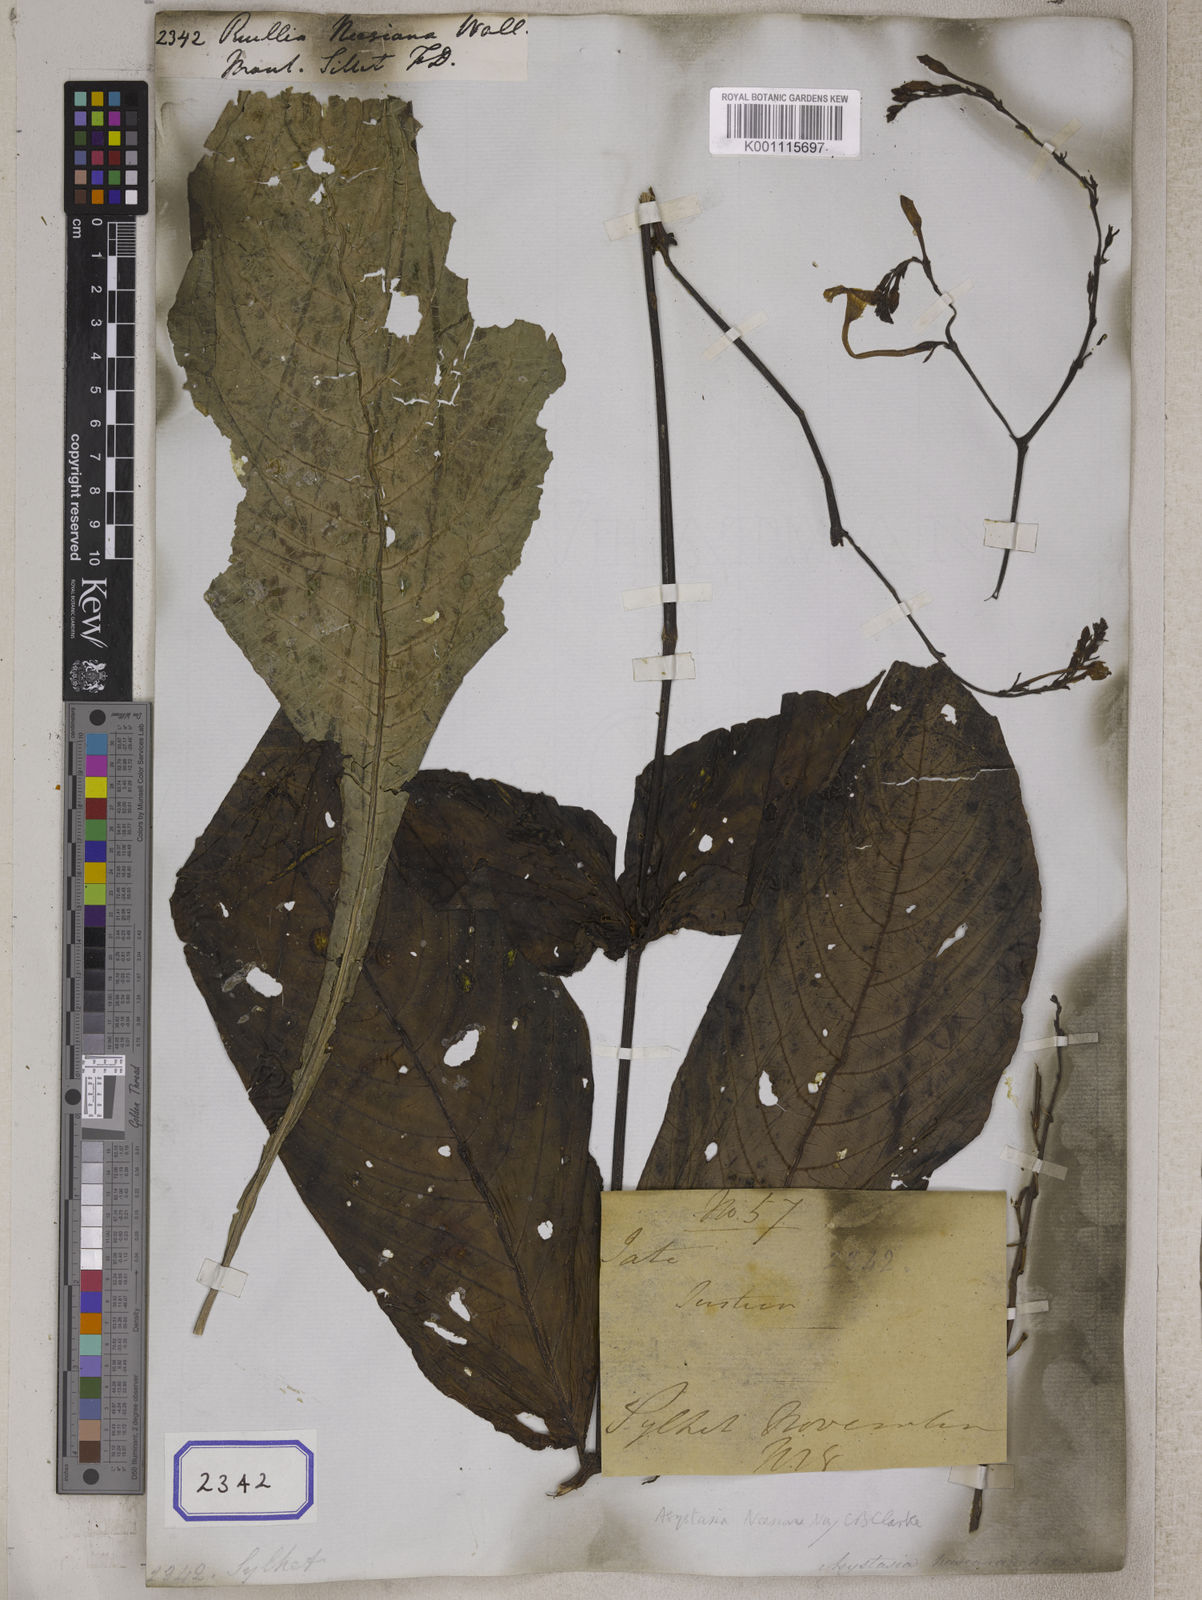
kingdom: Plantae
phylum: Tracheophyta
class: Magnoliopsida
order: Lamiales
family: Acanthaceae
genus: Mackaya
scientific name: Mackaya neesiana
